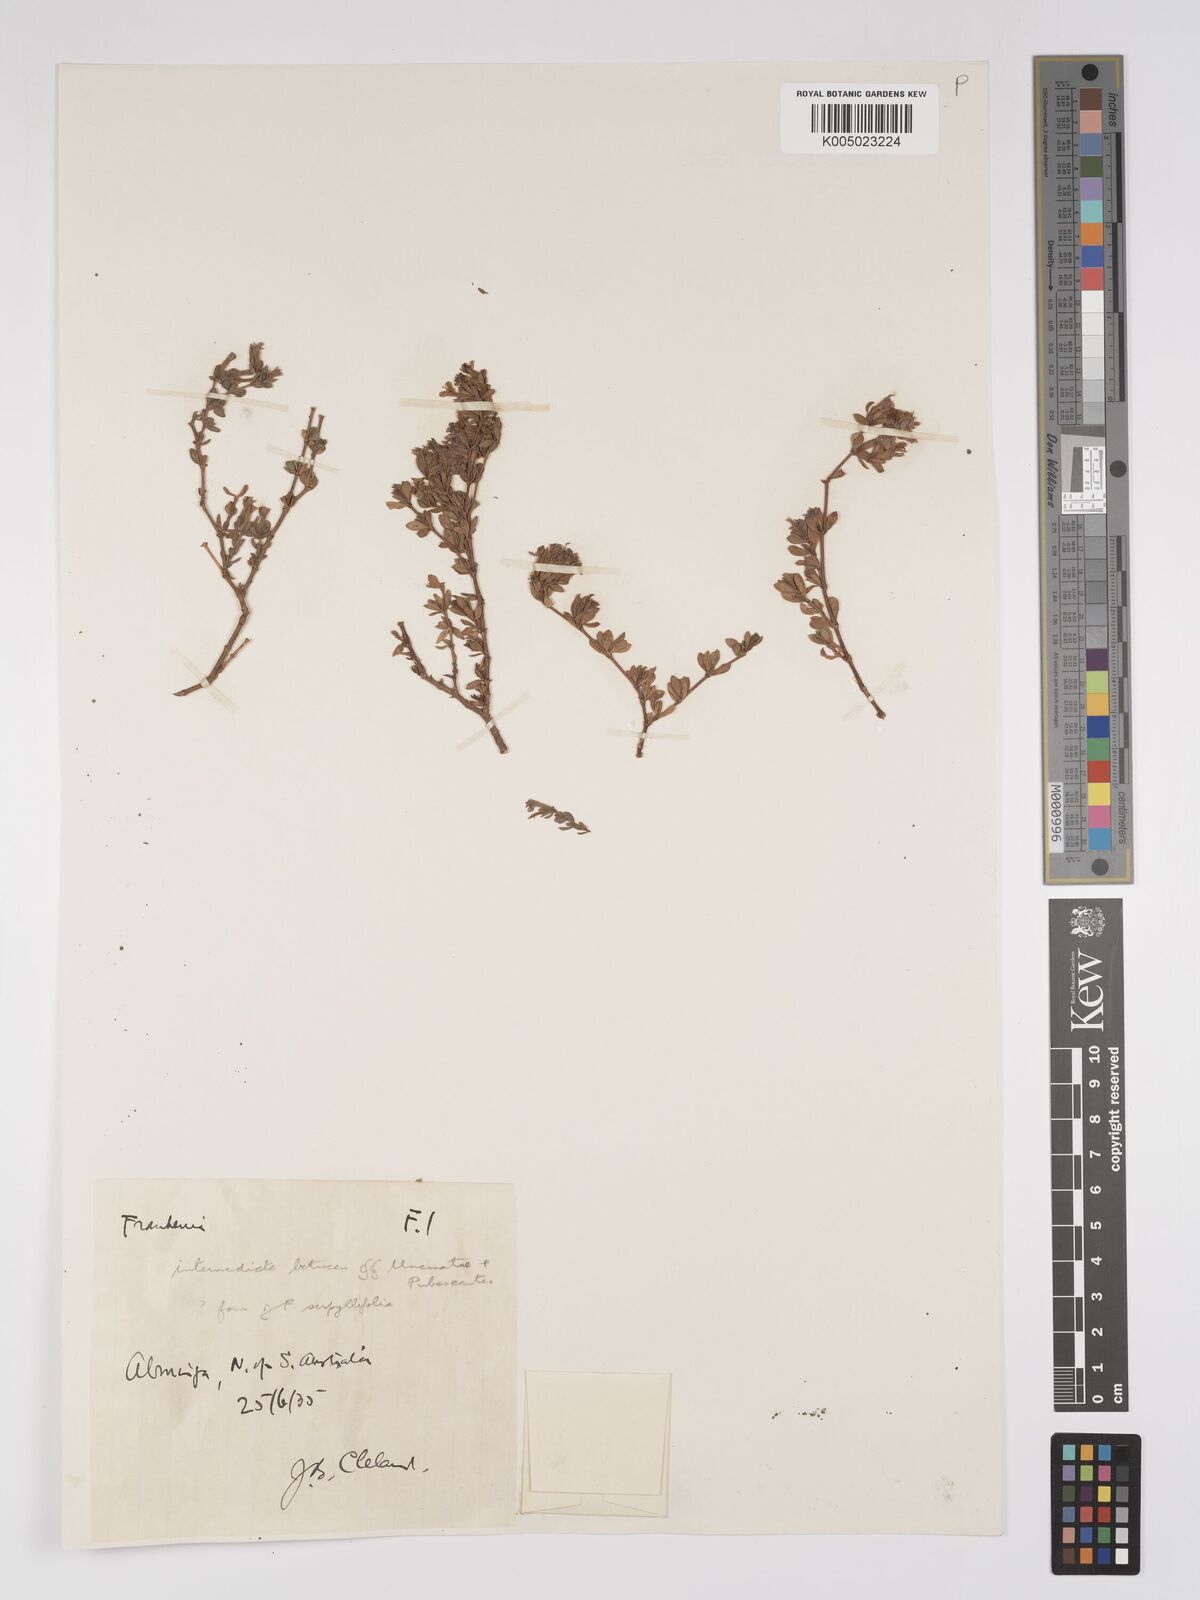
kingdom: Plantae
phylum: Tracheophyta
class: Magnoliopsida
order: Caryophyllales
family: Frankeniaceae
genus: Frankenia
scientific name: Frankenia
